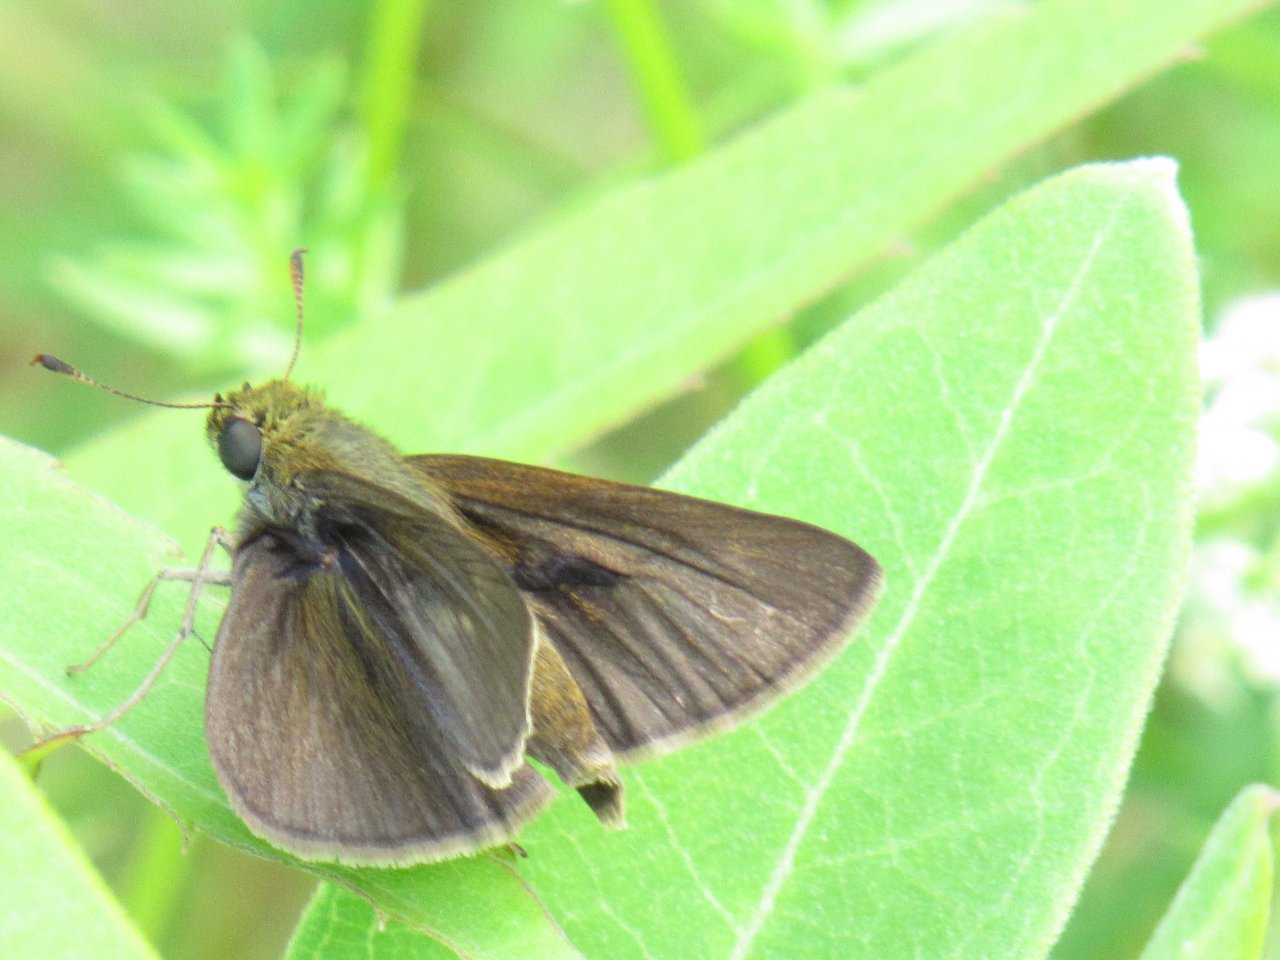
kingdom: Animalia
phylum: Arthropoda
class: Insecta
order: Lepidoptera
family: Hesperiidae
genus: Euphyes
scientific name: Euphyes vestris
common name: Dun Skipper
